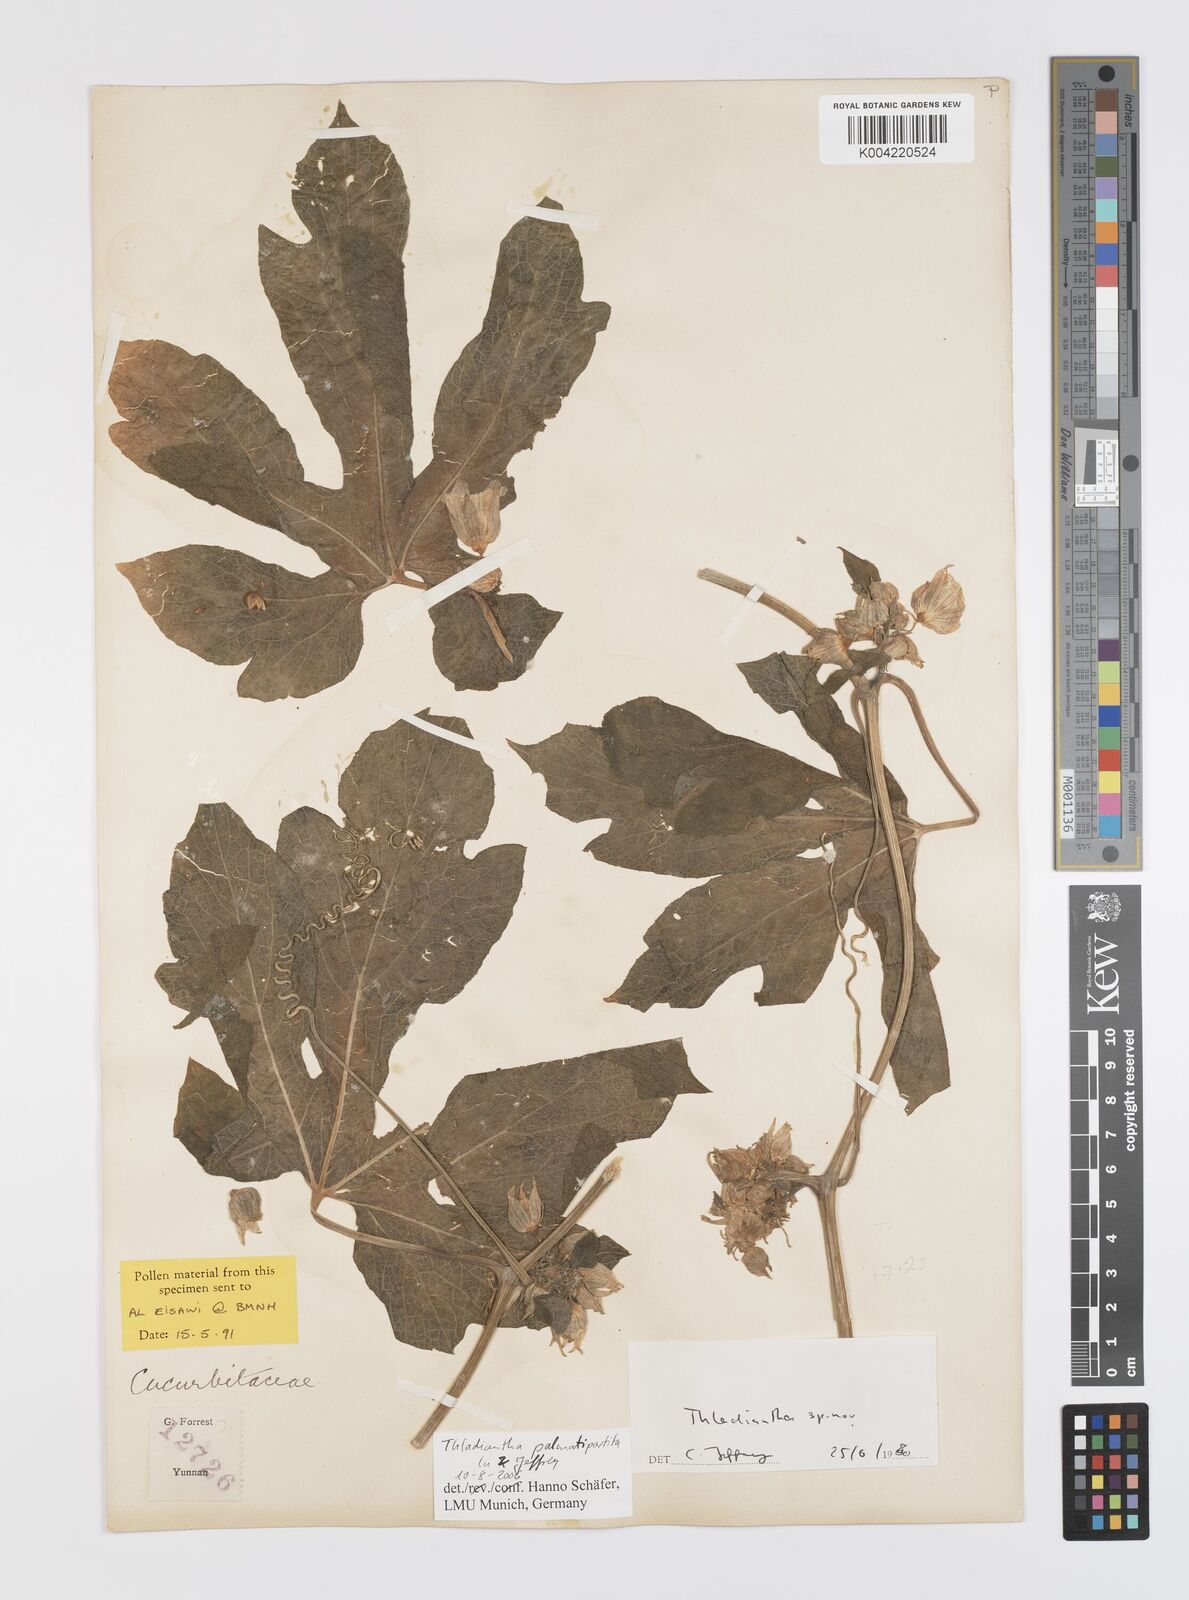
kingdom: Plantae
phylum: Tracheophyta
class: Magnoliopsida
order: Cucurbitales
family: Cucurbitaceae
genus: Thladiantha
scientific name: Thladiantha palmatipartita
